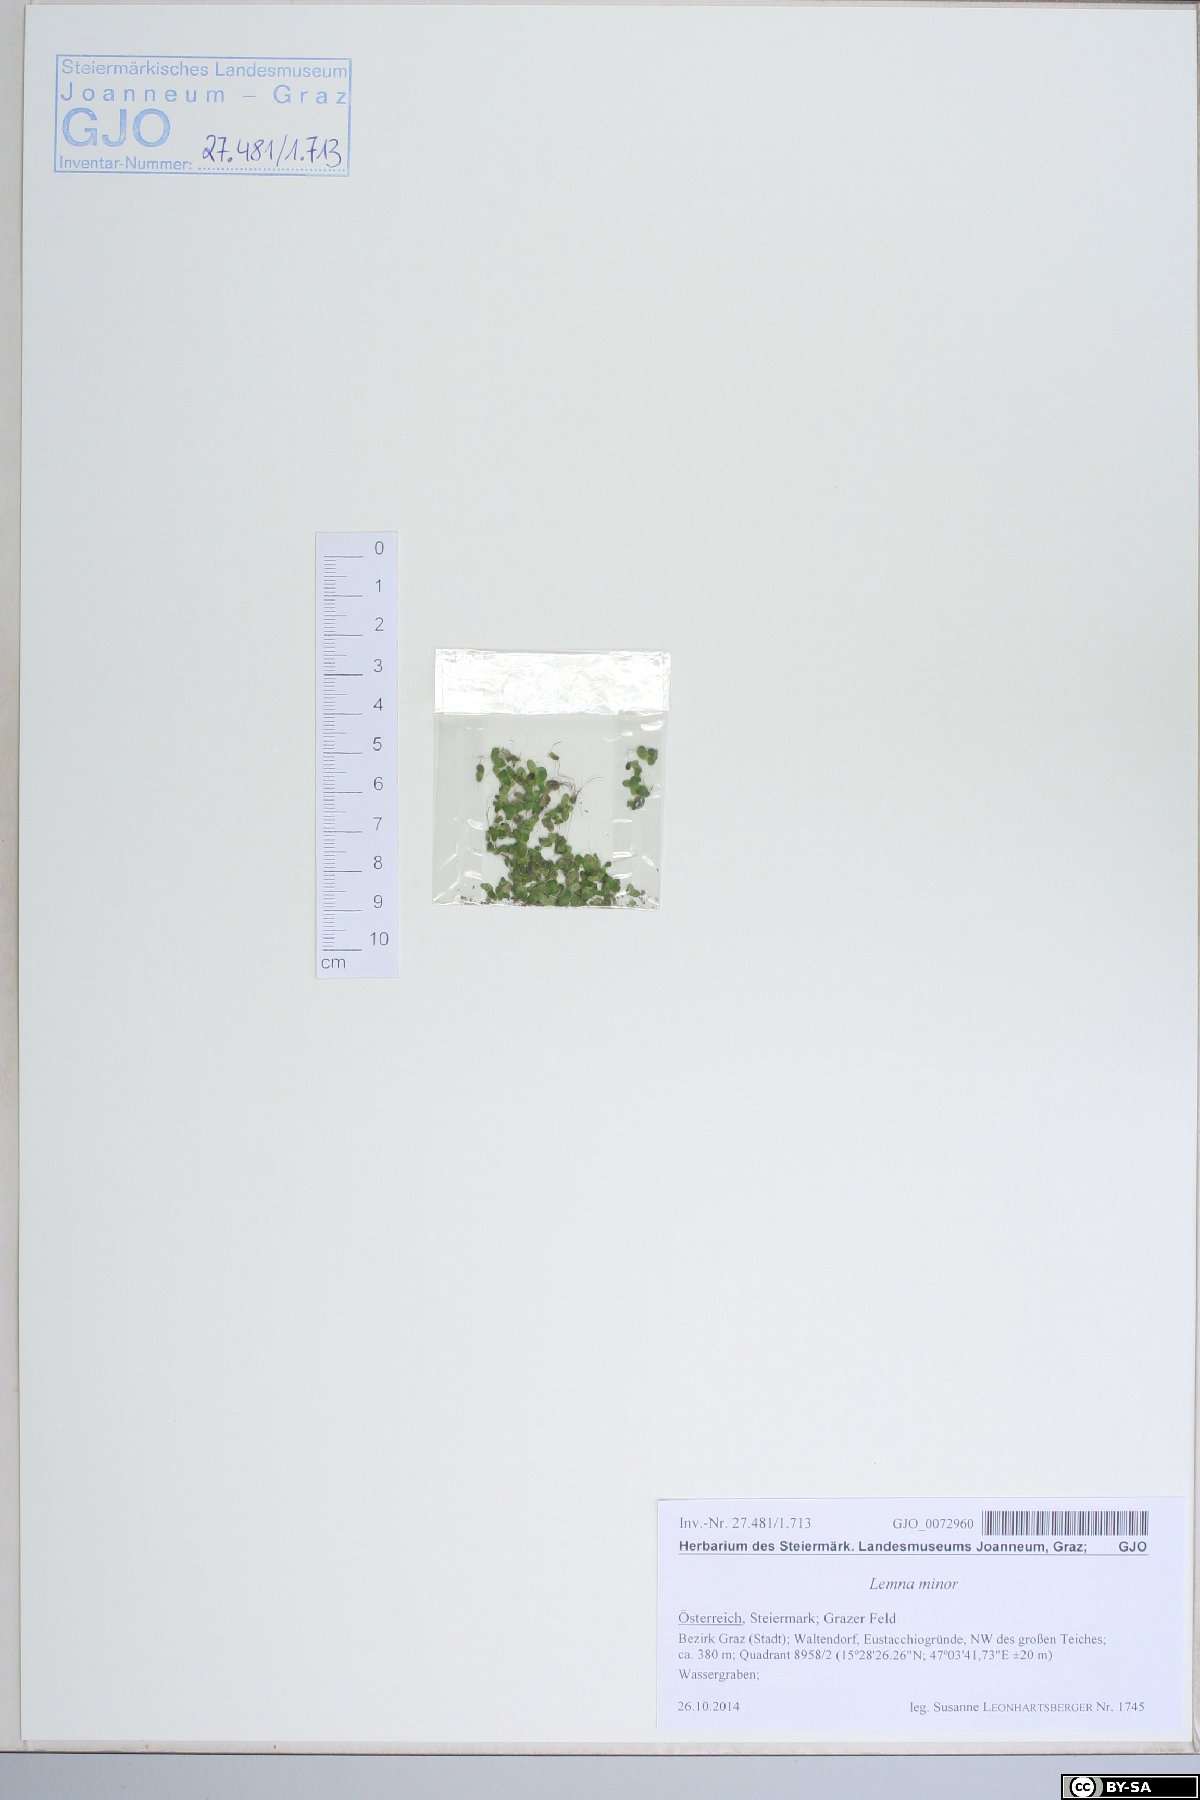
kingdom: Plantae
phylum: Tracheophyta
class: Liliopsida
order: Alismatales
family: Araceae
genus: Lemna
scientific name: Lemna minor
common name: Common duckweed
